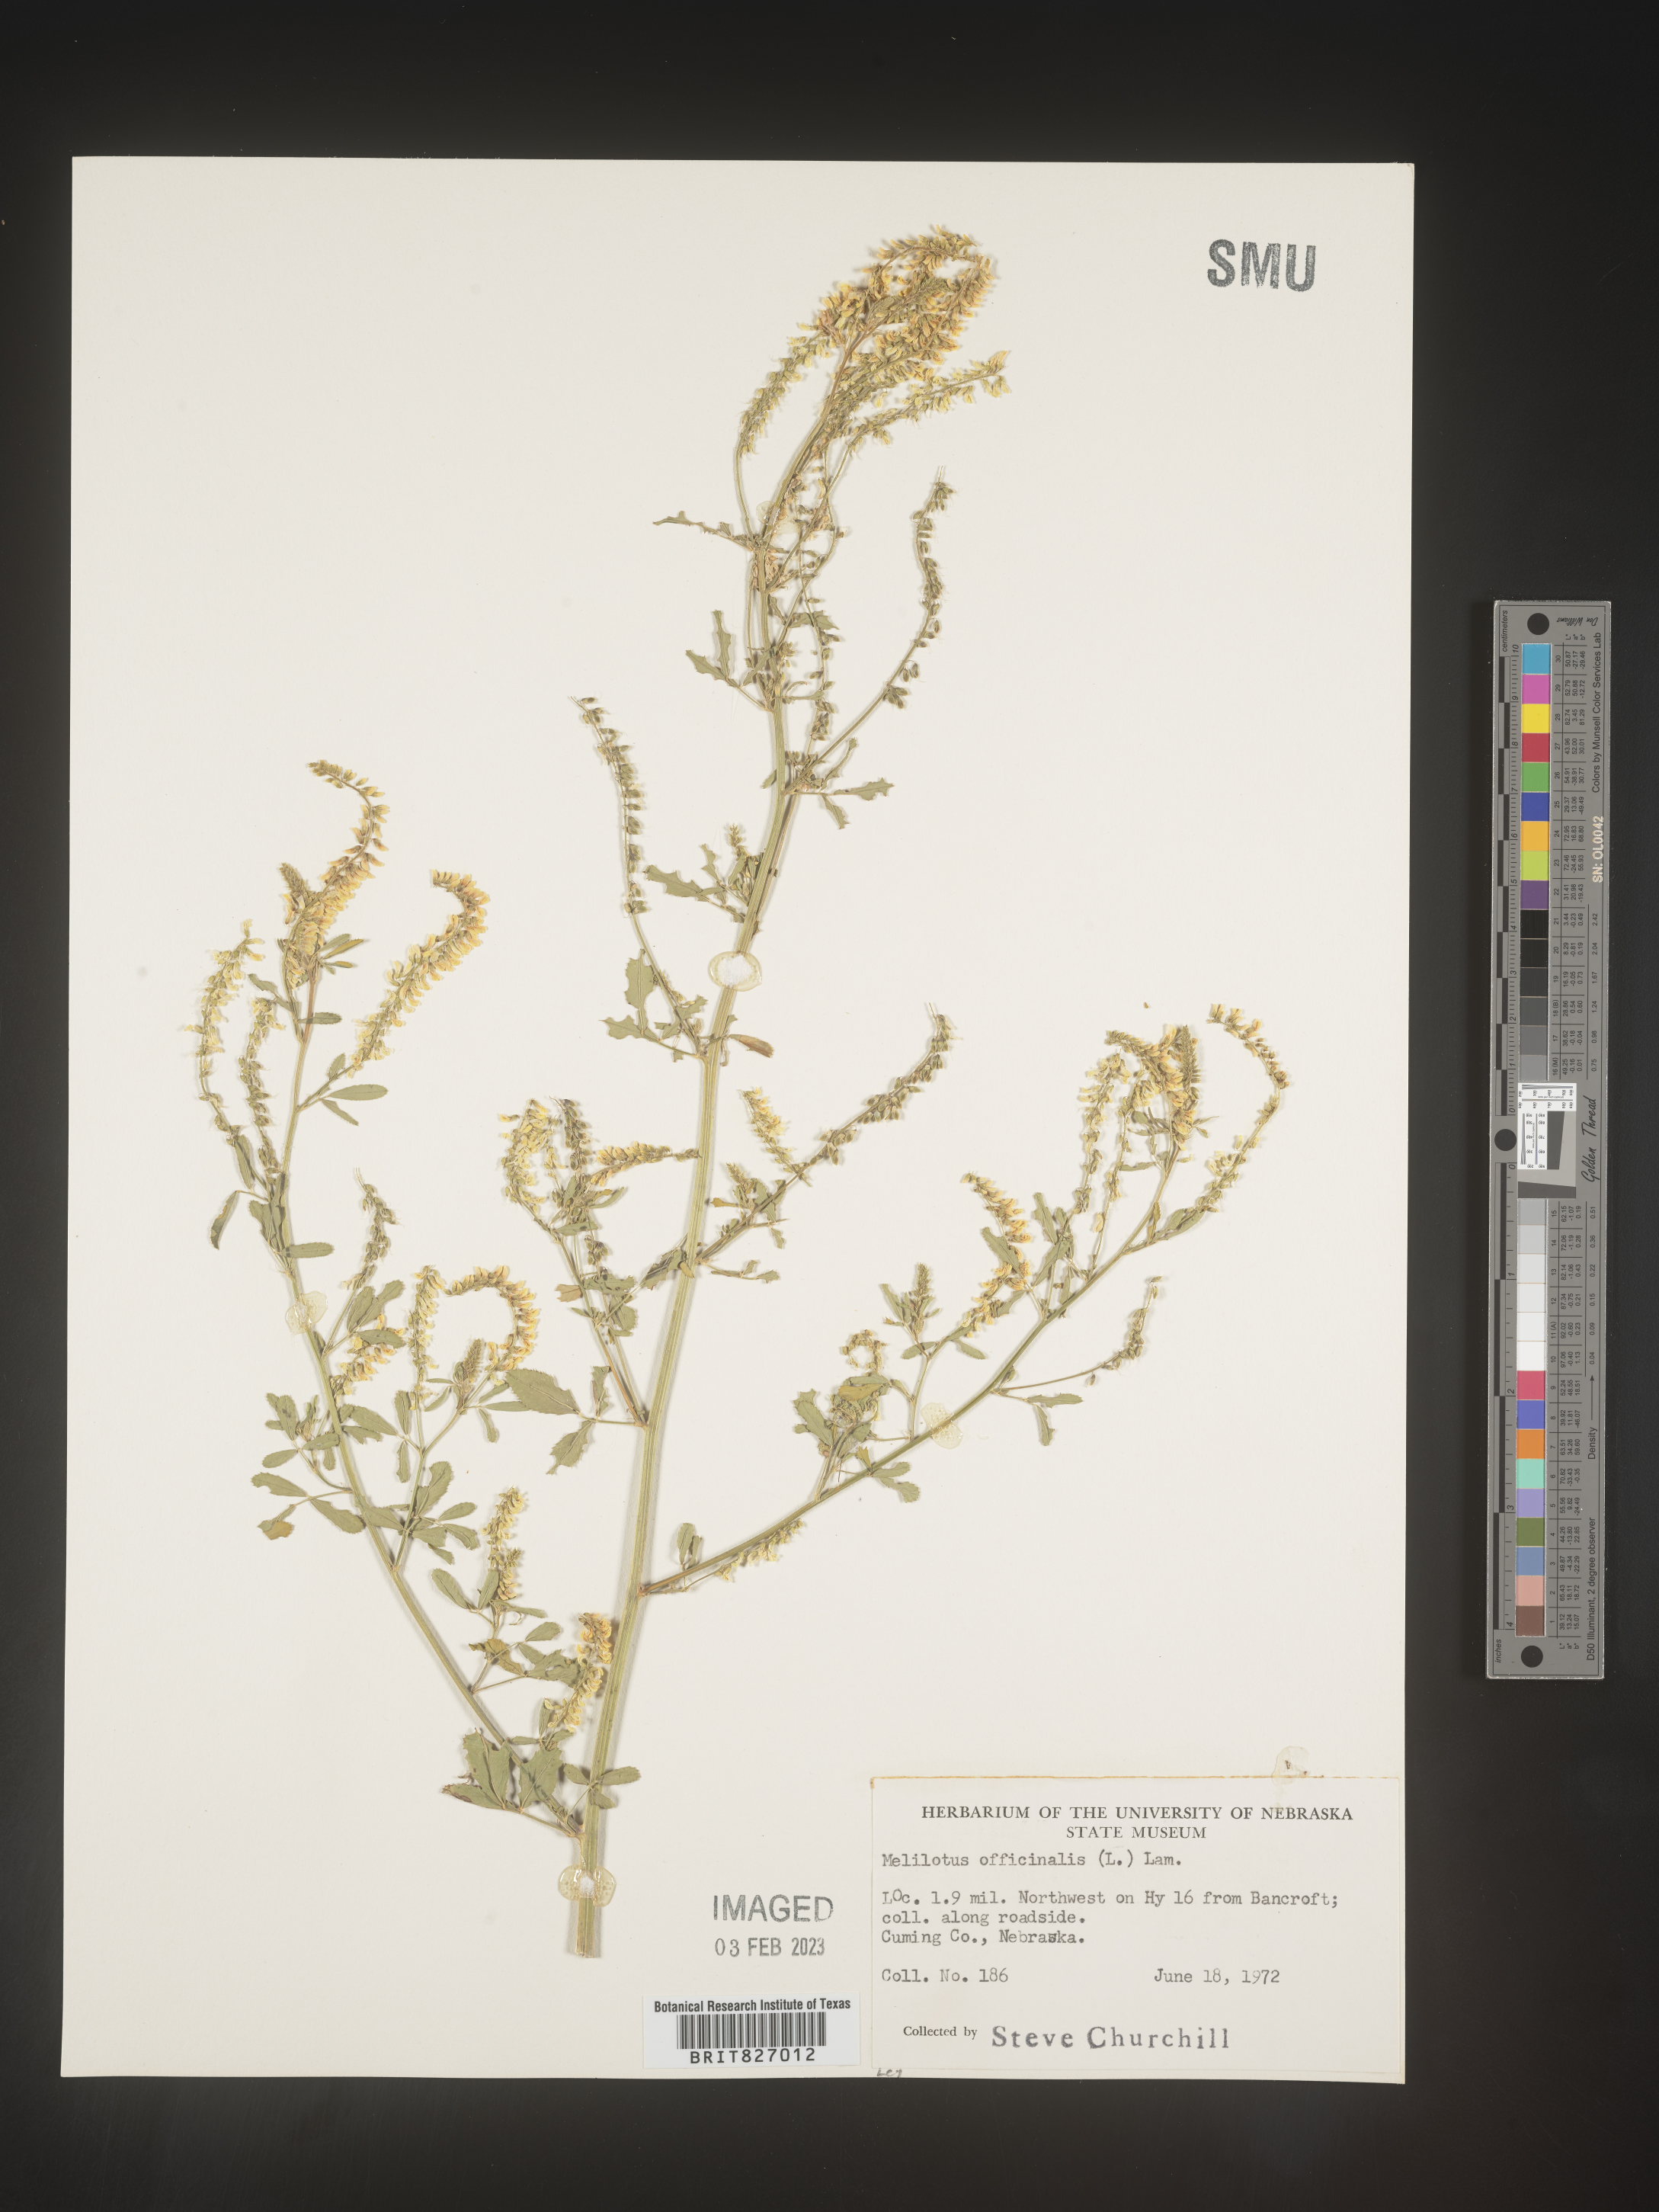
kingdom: Plantae
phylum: Tracheophyta
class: Magnoliopsida
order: Fabales
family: Fabaceae
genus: Melilotus
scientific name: Melilotus officinalis
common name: Sweetclover
